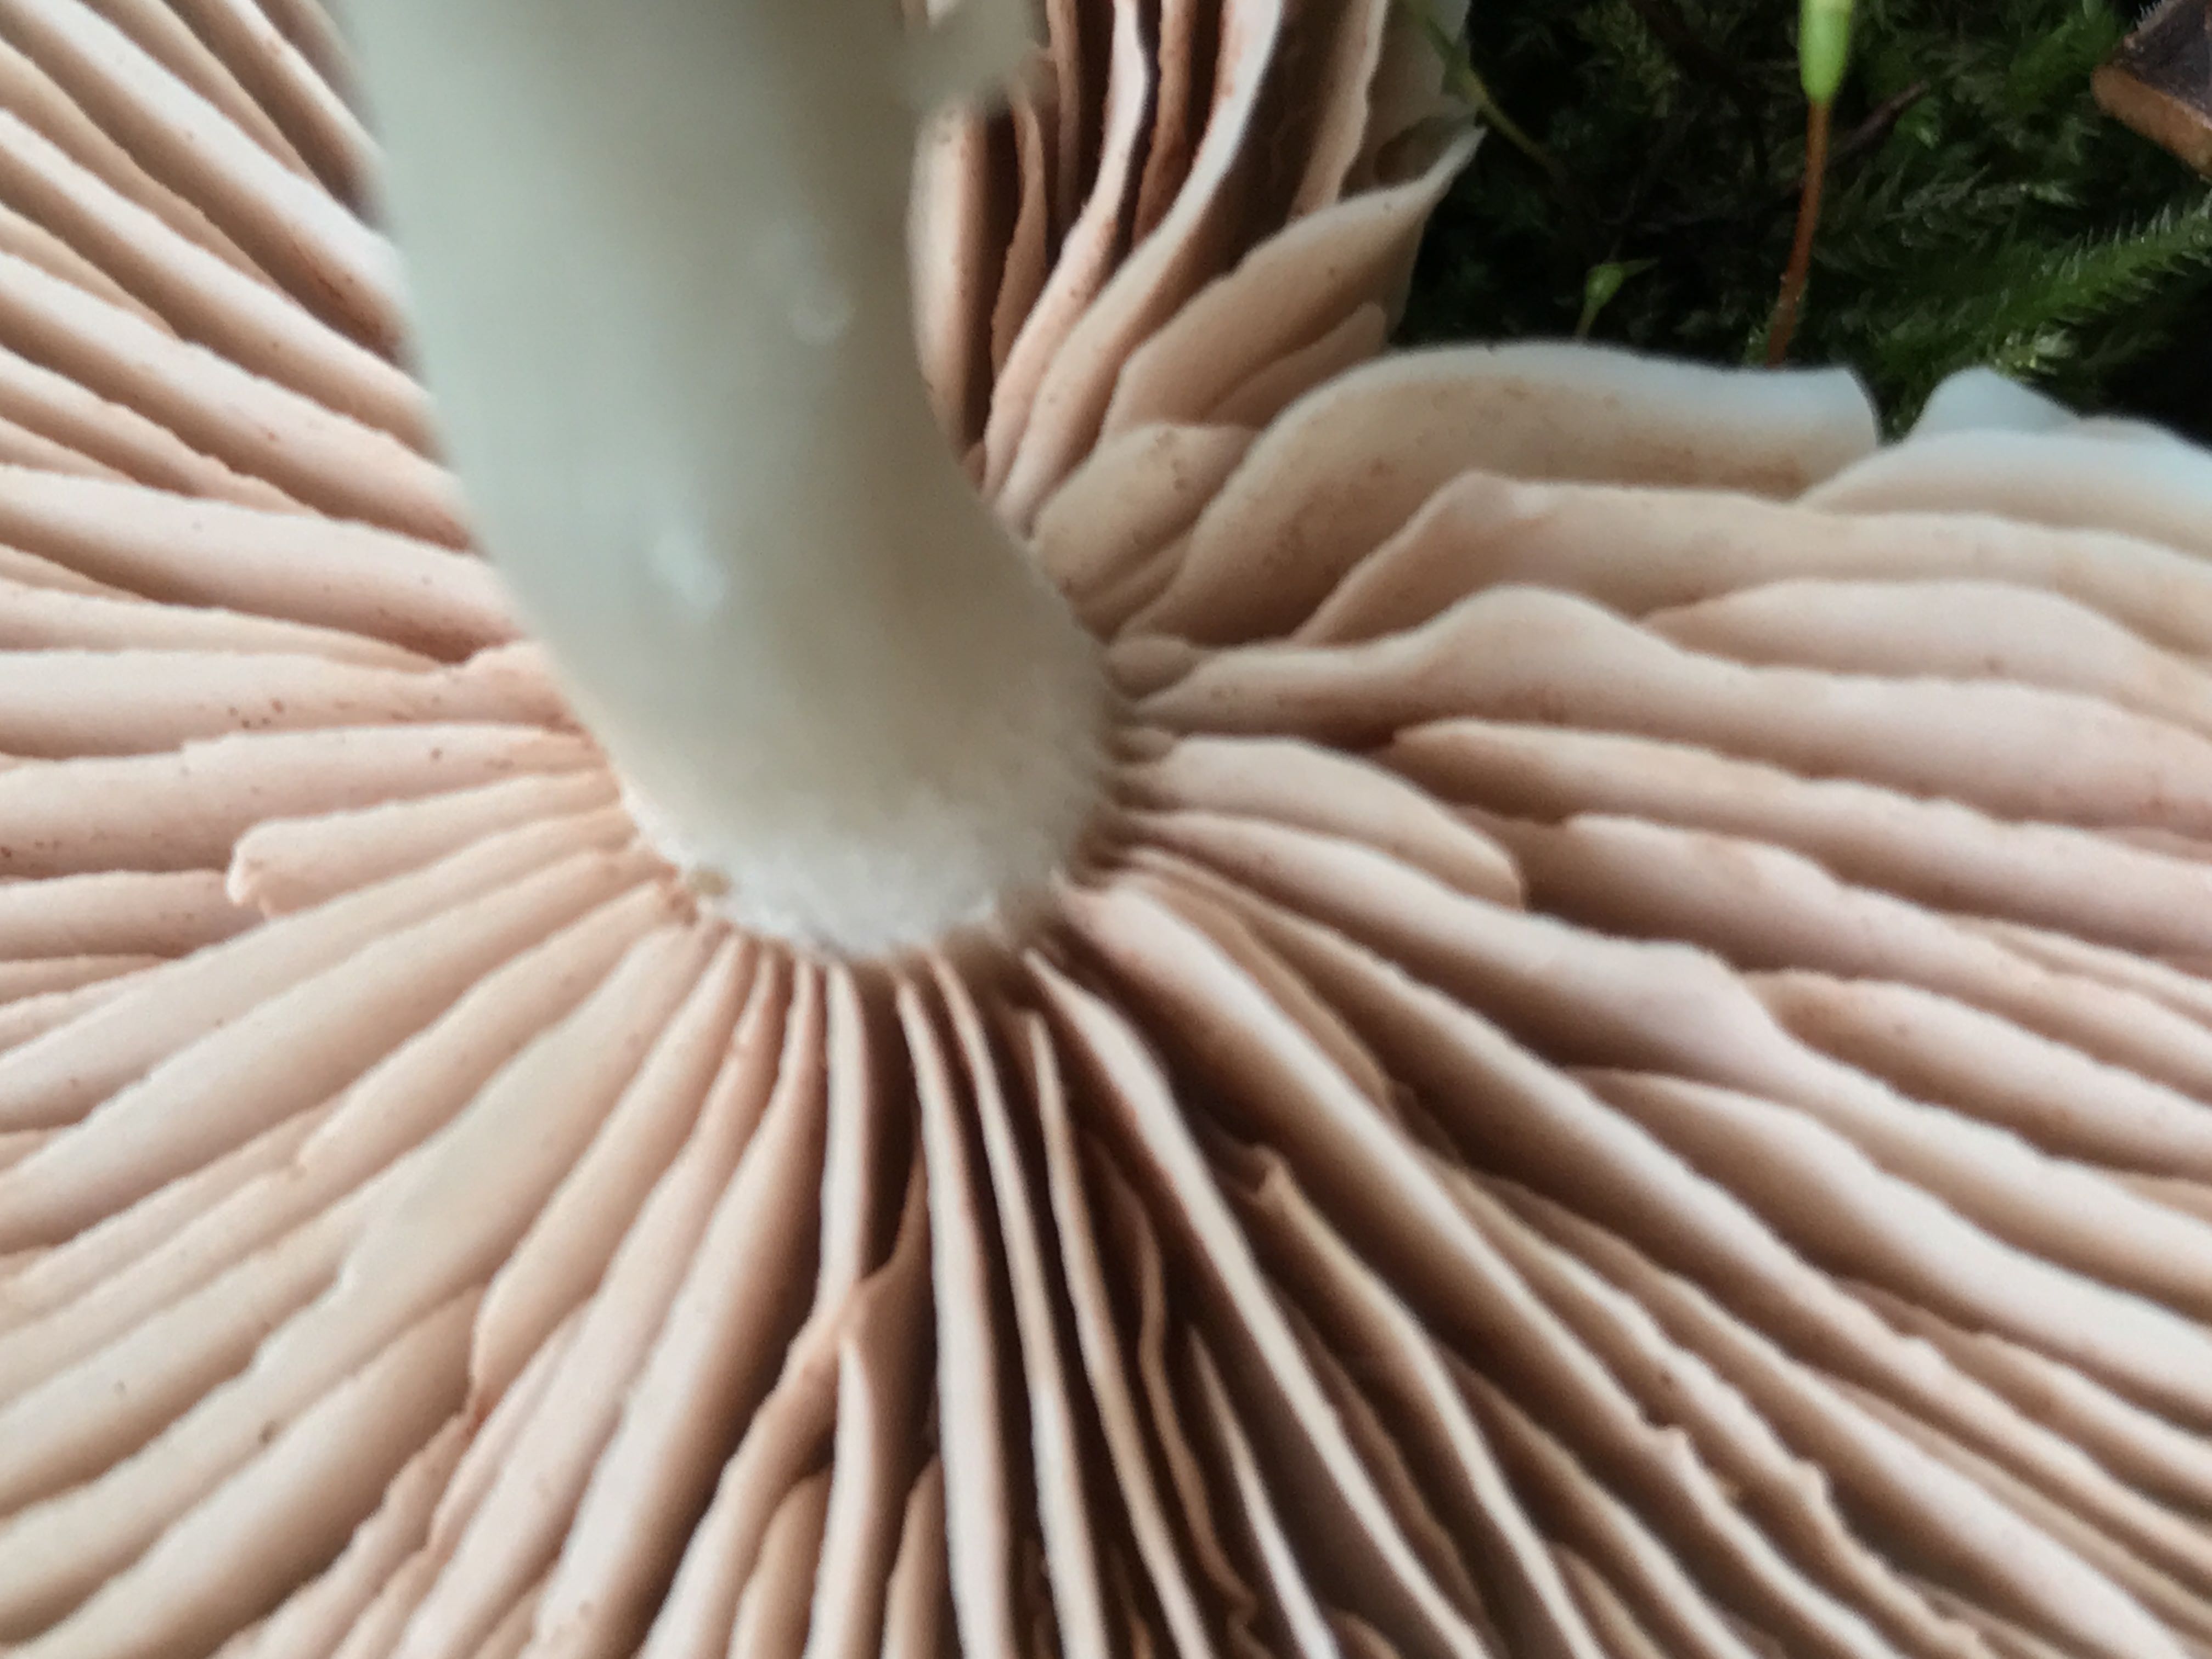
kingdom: Fungi
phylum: Basidiomycota
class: Agaricomycetes
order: Agaricales
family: Entolomataceae
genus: Entoloma
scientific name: Entoloma
